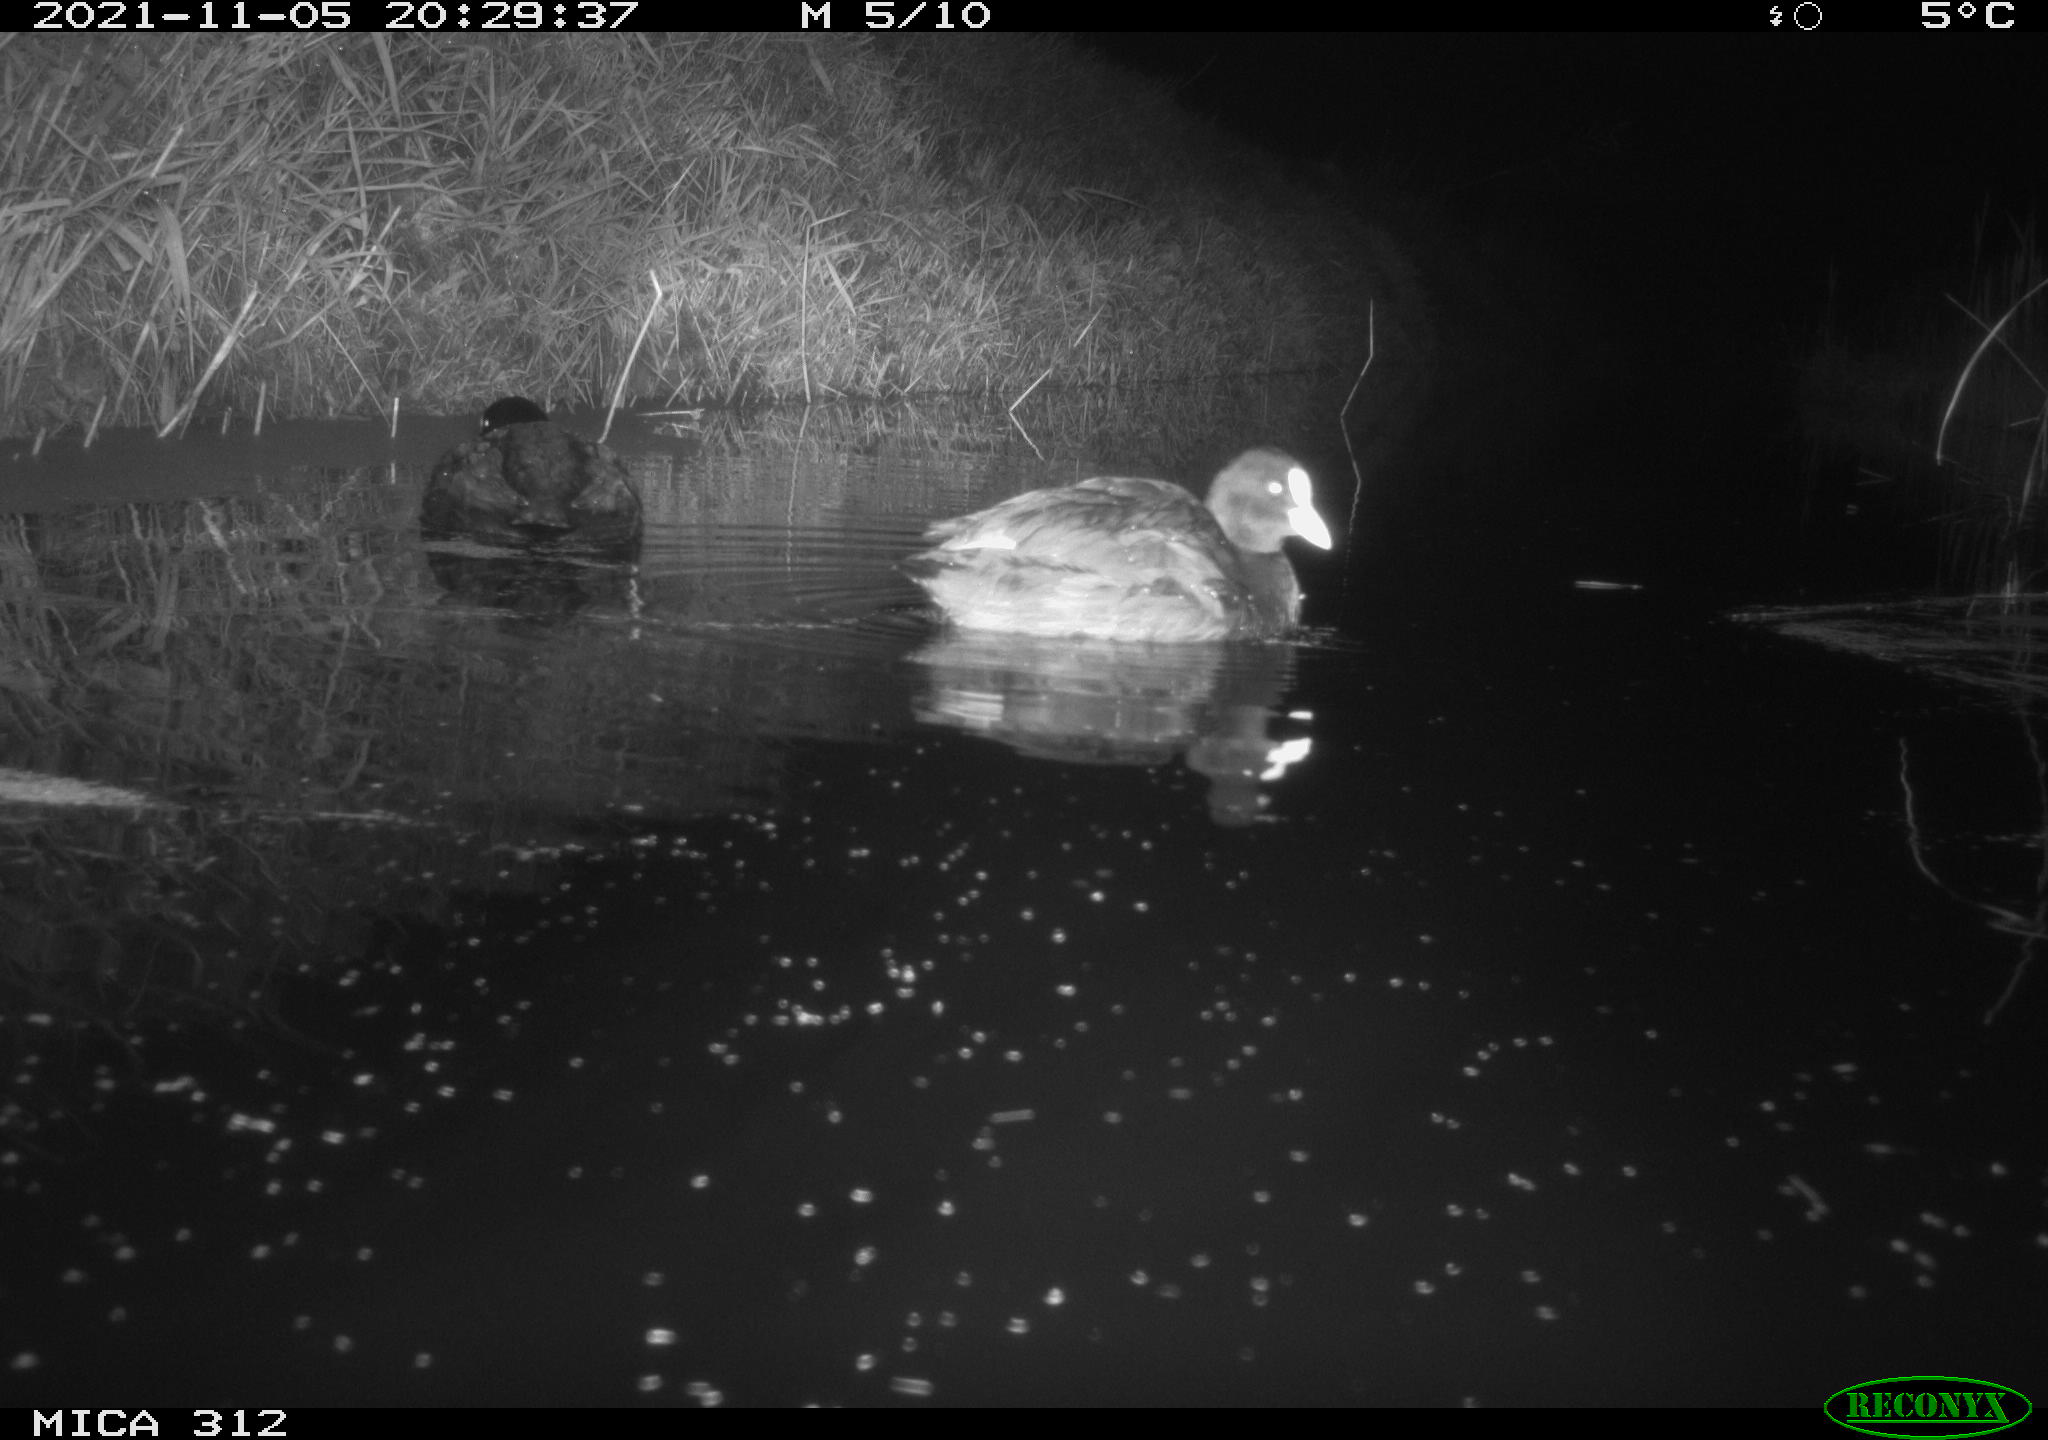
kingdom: Animalia
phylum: Chordata
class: Aves
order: Anseriformes
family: Anatidae
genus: Anas
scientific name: Anas
